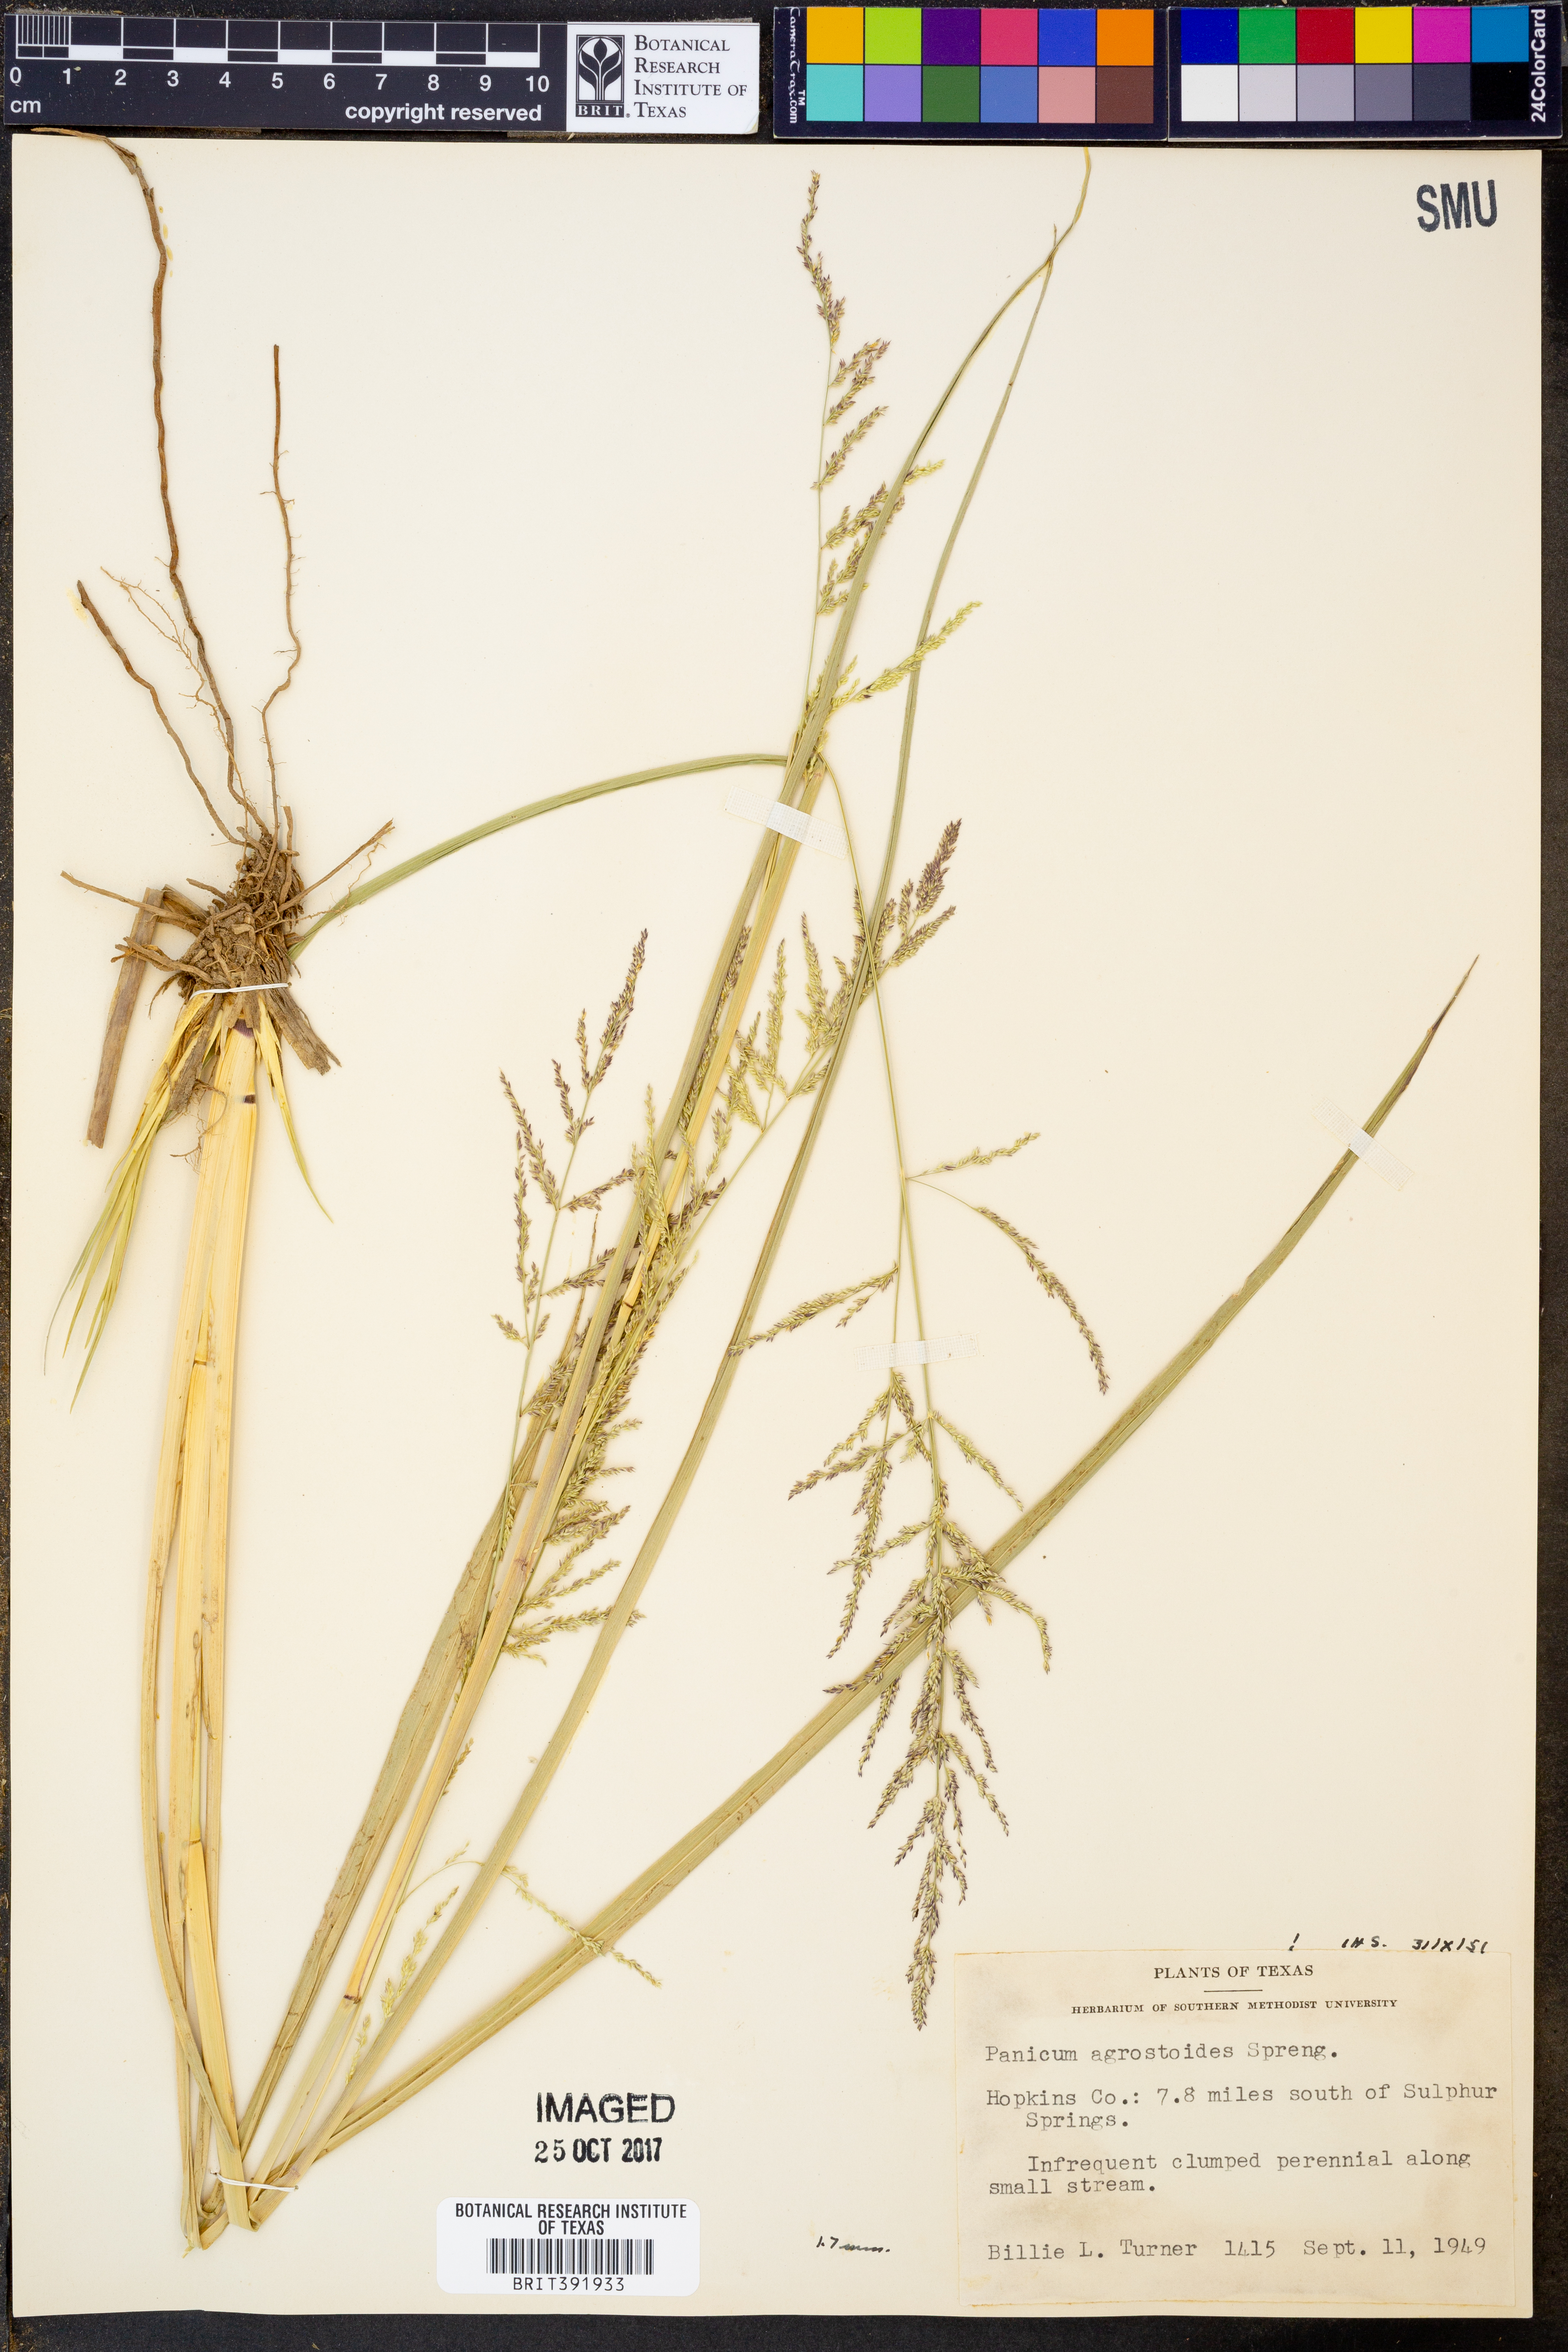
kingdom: Plantae
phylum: Tracheophyta
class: Liliopsida
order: Poales
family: Poaceae
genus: Steinchisma
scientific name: Steinchisma laxum
